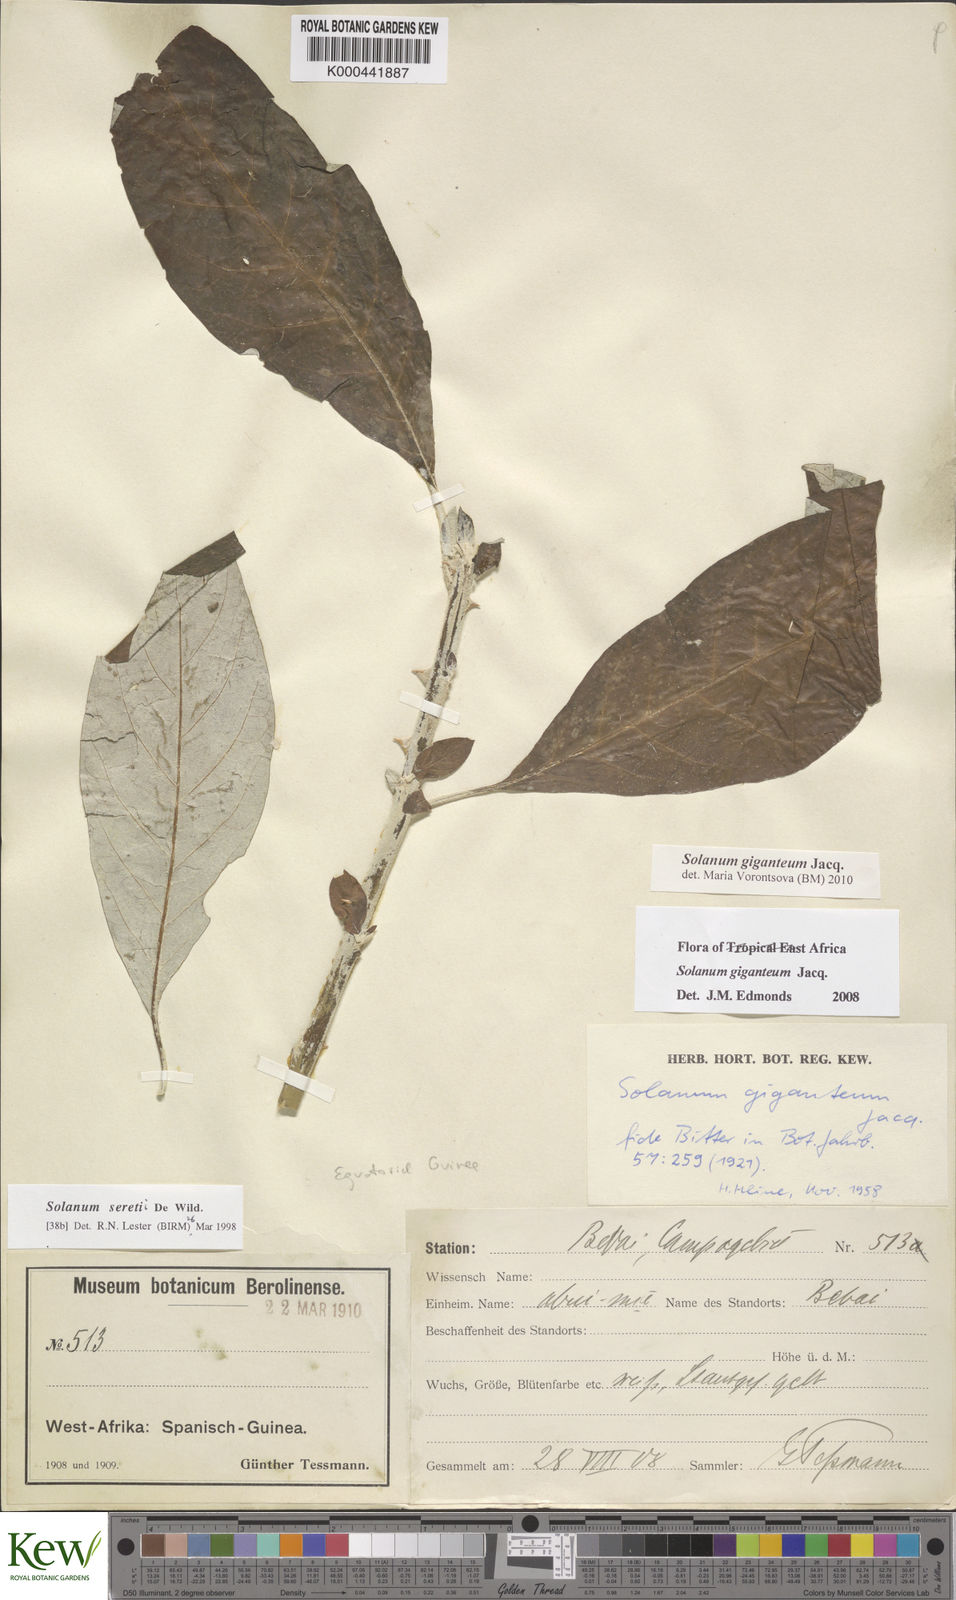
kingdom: Plantae
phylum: Tracheophyta
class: Magnoliopsida
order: Solanales
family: Solanaceae
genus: Solanum
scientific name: Solanum giganteum
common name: Healing-leaf-tree
